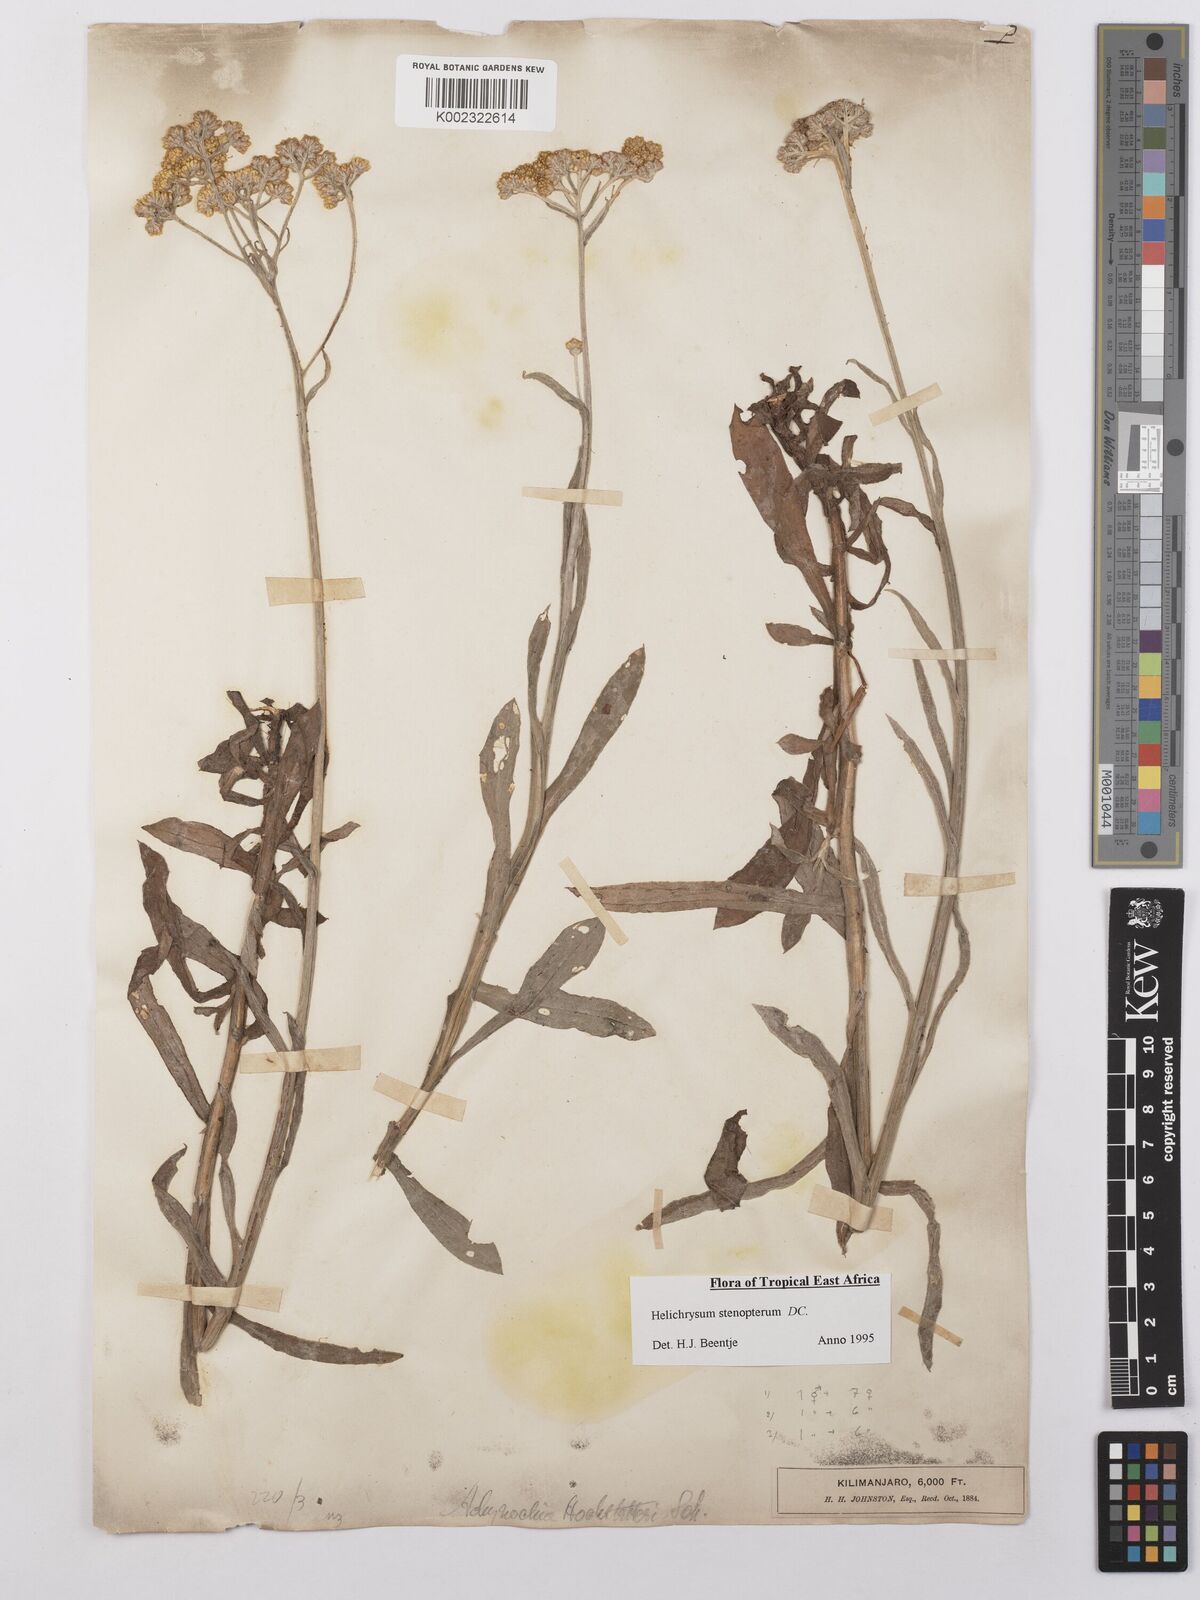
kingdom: Plantae
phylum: Tracheophyta
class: Magnoliopsida
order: Asterales
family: Asteraceae
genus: Helichrysum
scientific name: Helichrysum stenopterum
